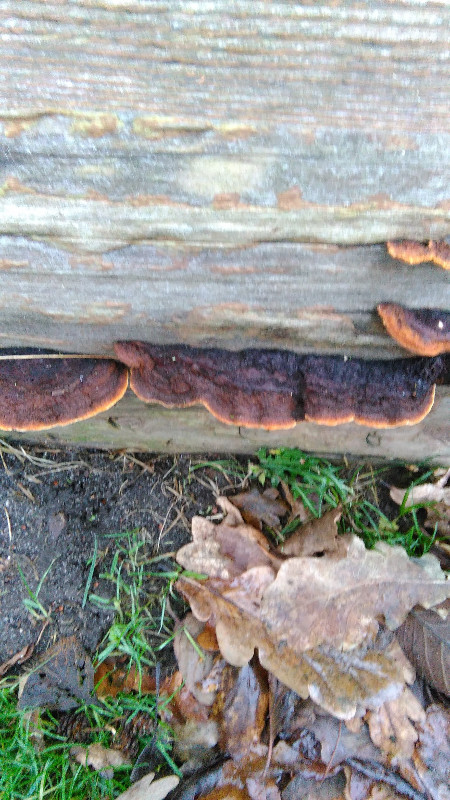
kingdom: Fungi
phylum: Basidiomycota
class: Agaricomycetes
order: Gloeophyllales
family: Gloeophyllaceae
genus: Gloeophyllum
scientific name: Gloeophyllum sepiarium
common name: fyrre-korkhat
